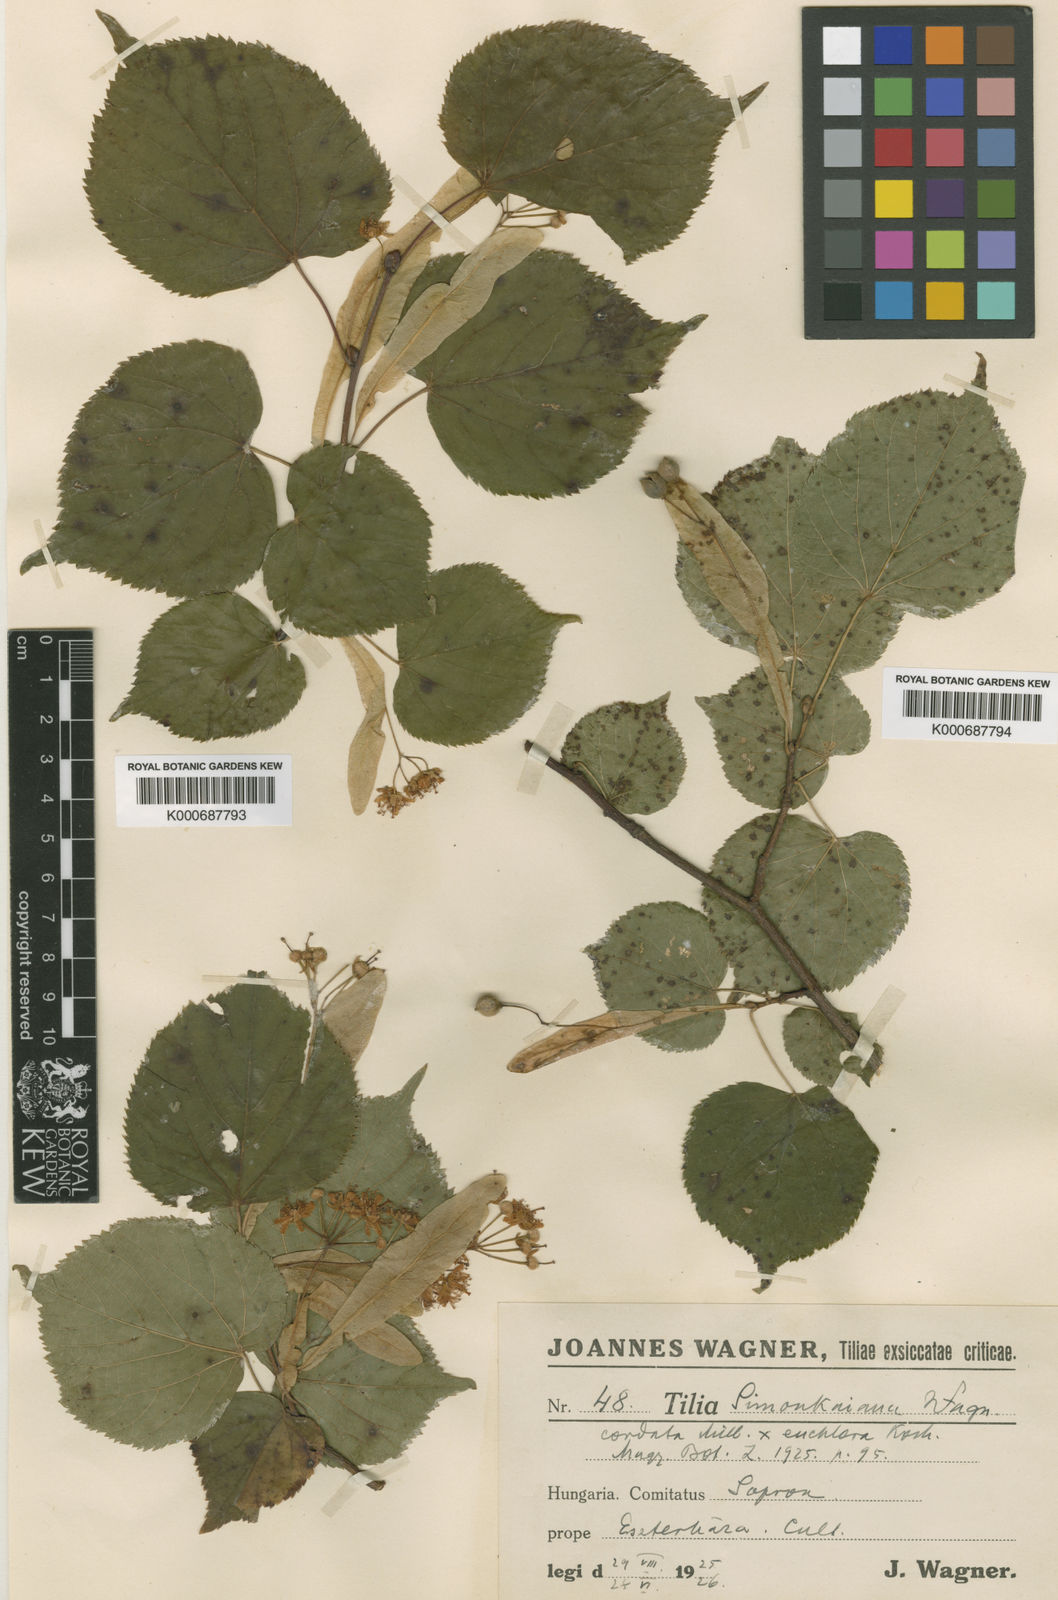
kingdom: Plantae
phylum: Tracheophyta
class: Magnoliopsida
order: Malvales
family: Malvaceae
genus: Tilia
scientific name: Tilia
